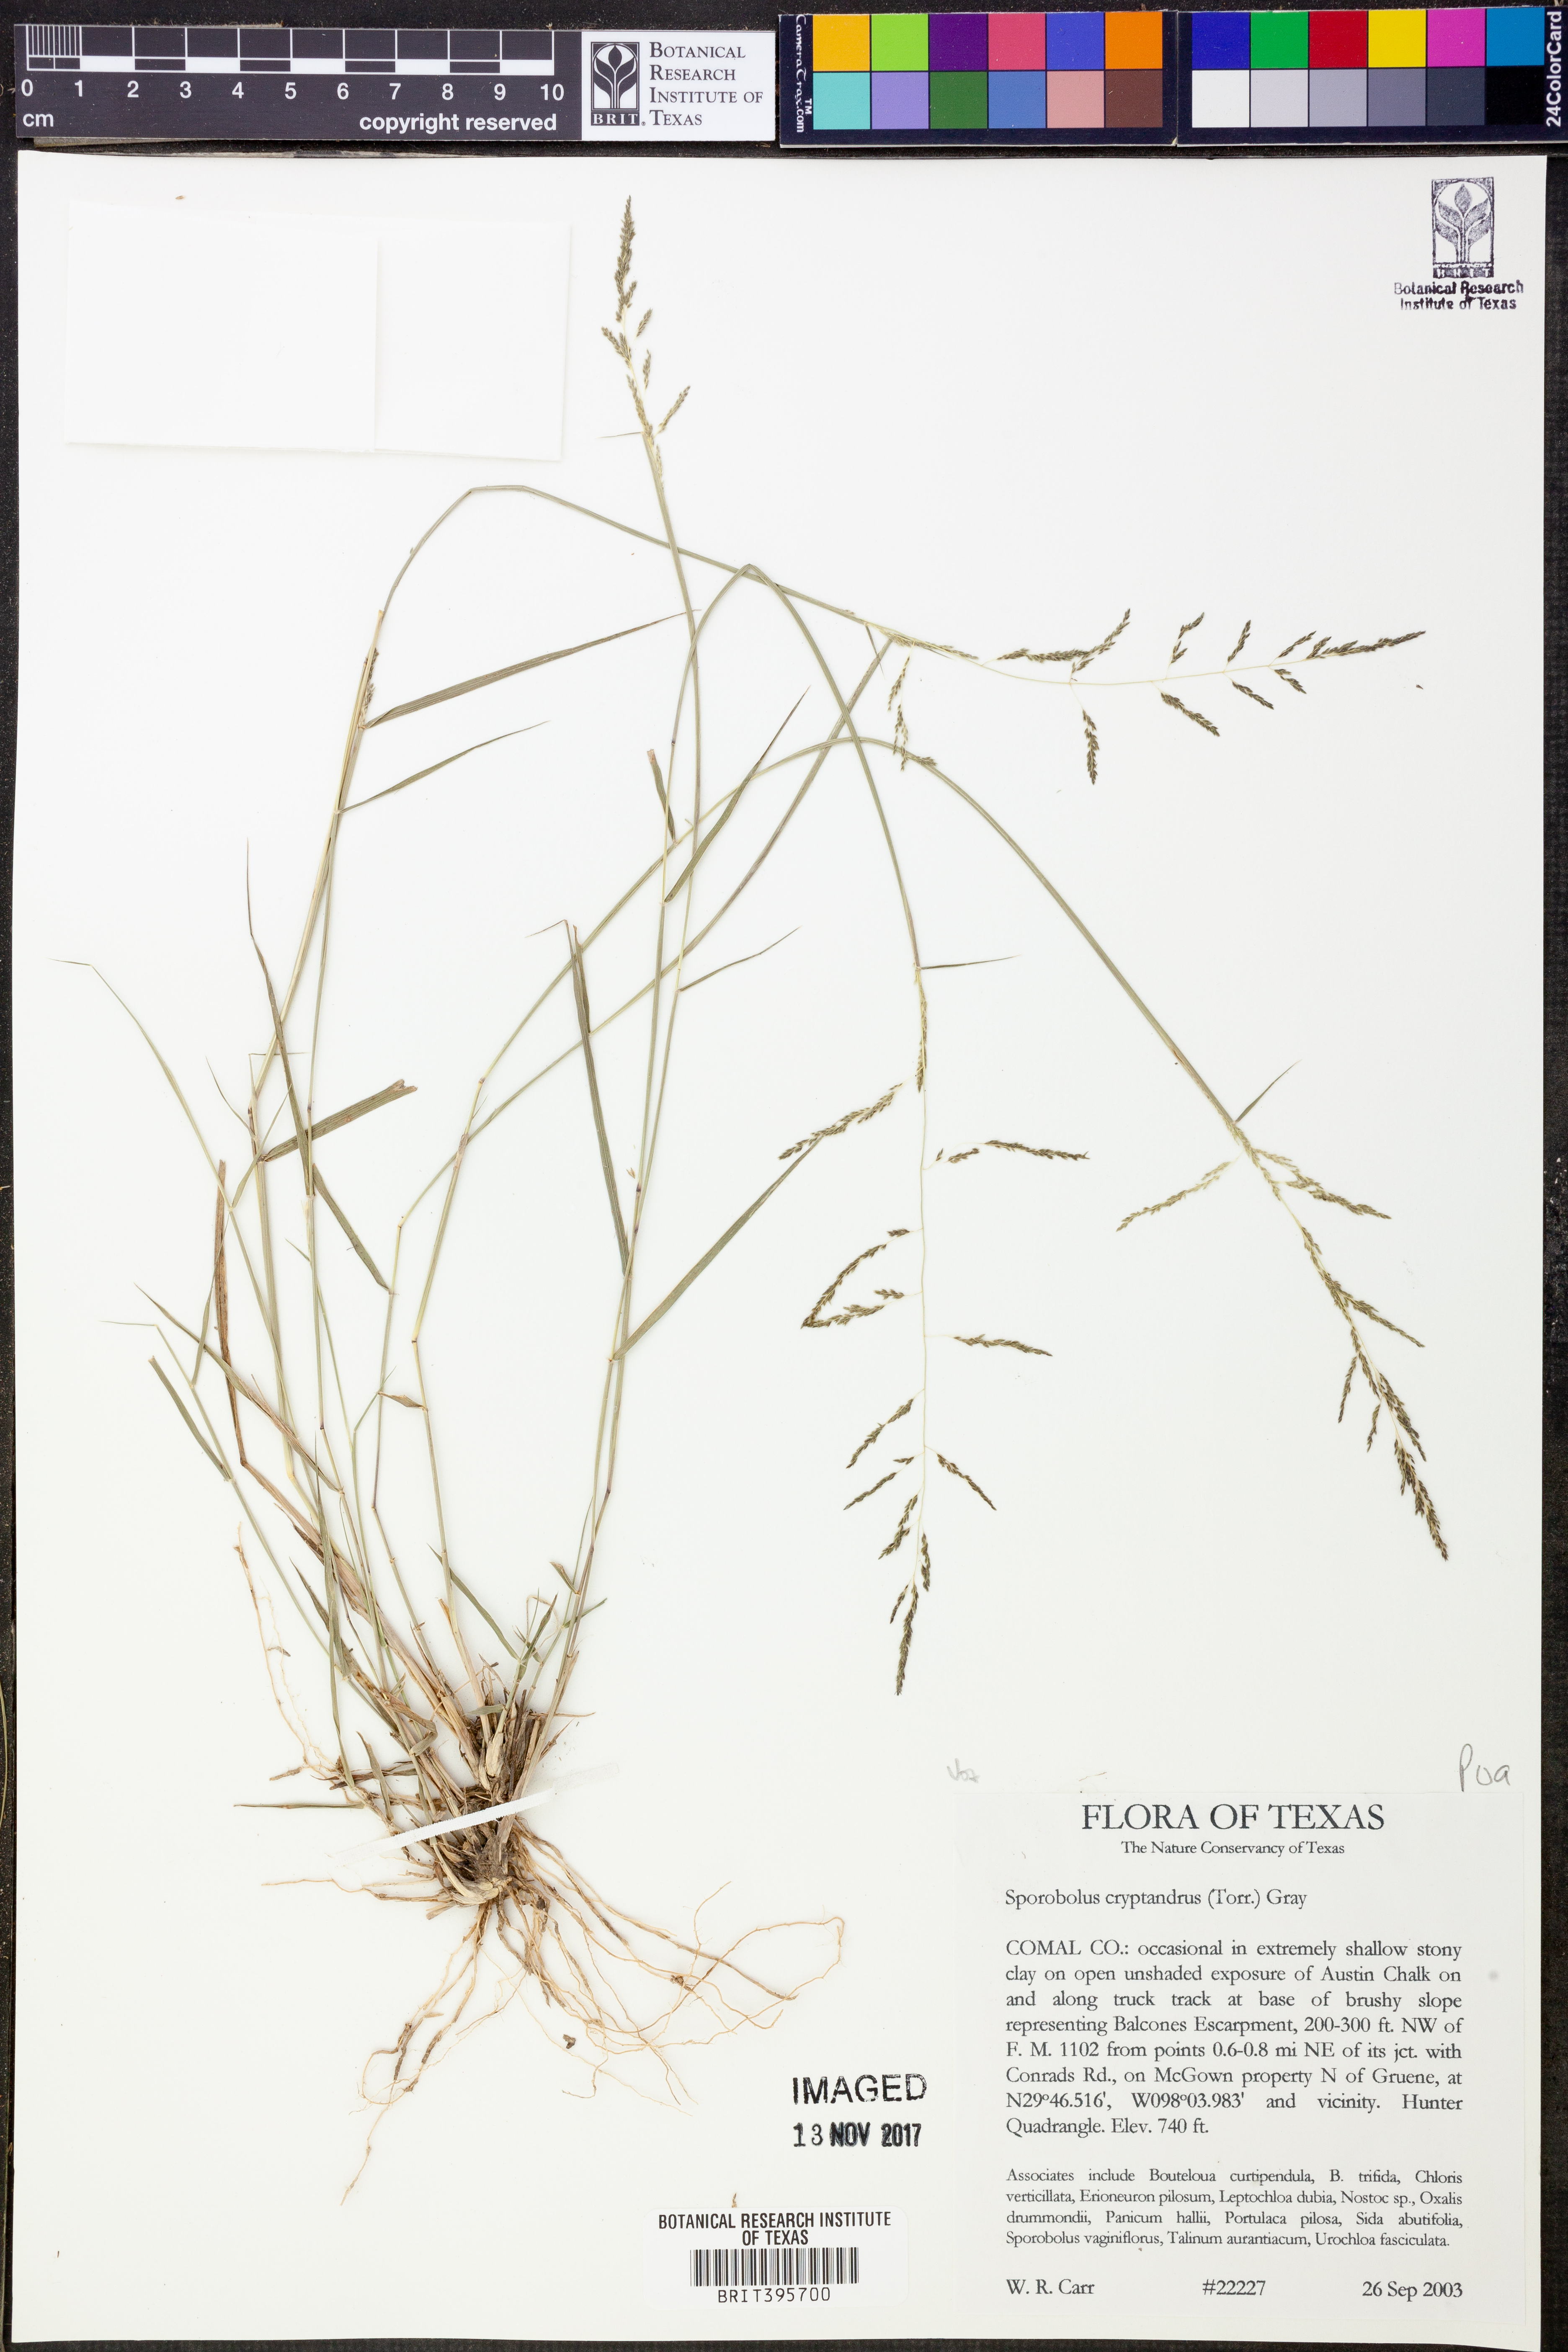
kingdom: Plantae
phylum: Tracheophyta
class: Liliopsida
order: Poales
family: Poaceae
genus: Sporobolus
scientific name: Sporobolus cryptandrus
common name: Sand dropseed
